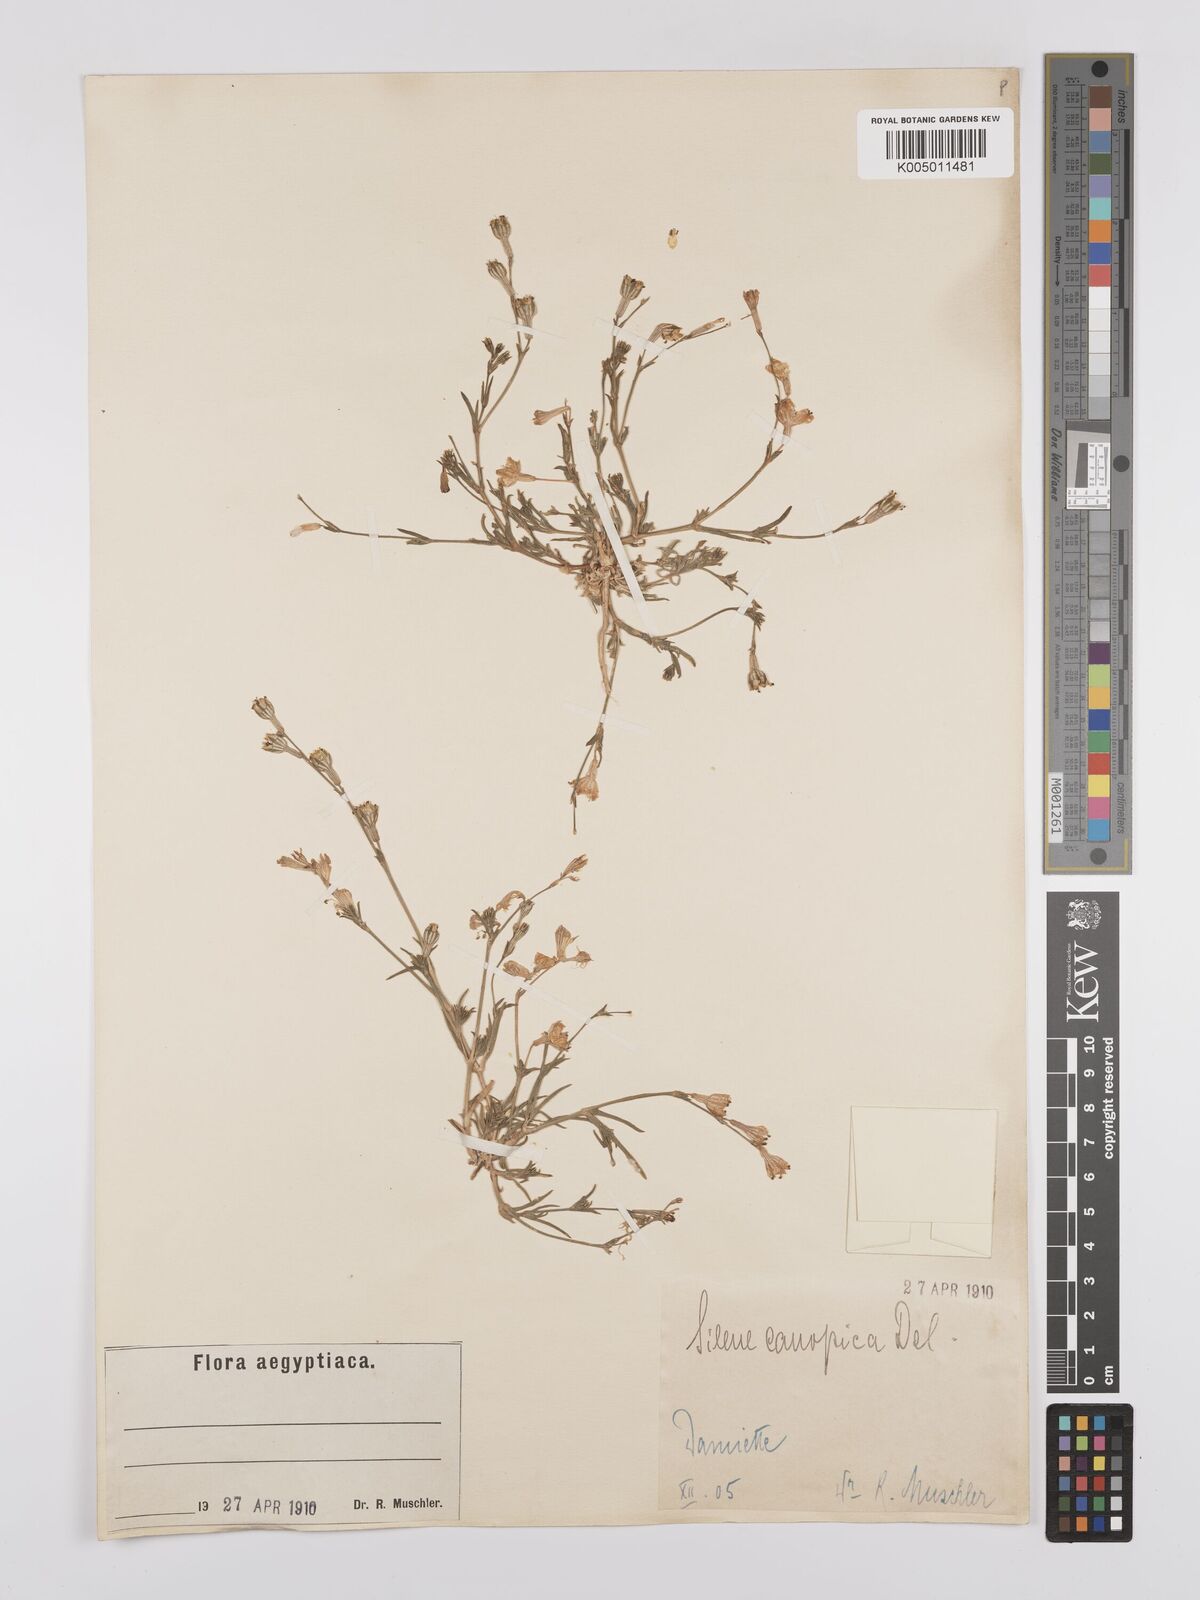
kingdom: Plantae
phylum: Tracheophyta
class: Magnoliopsida
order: Caryophyllales
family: Caryophyllaceae
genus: Silene
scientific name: Silene biappendiculata
